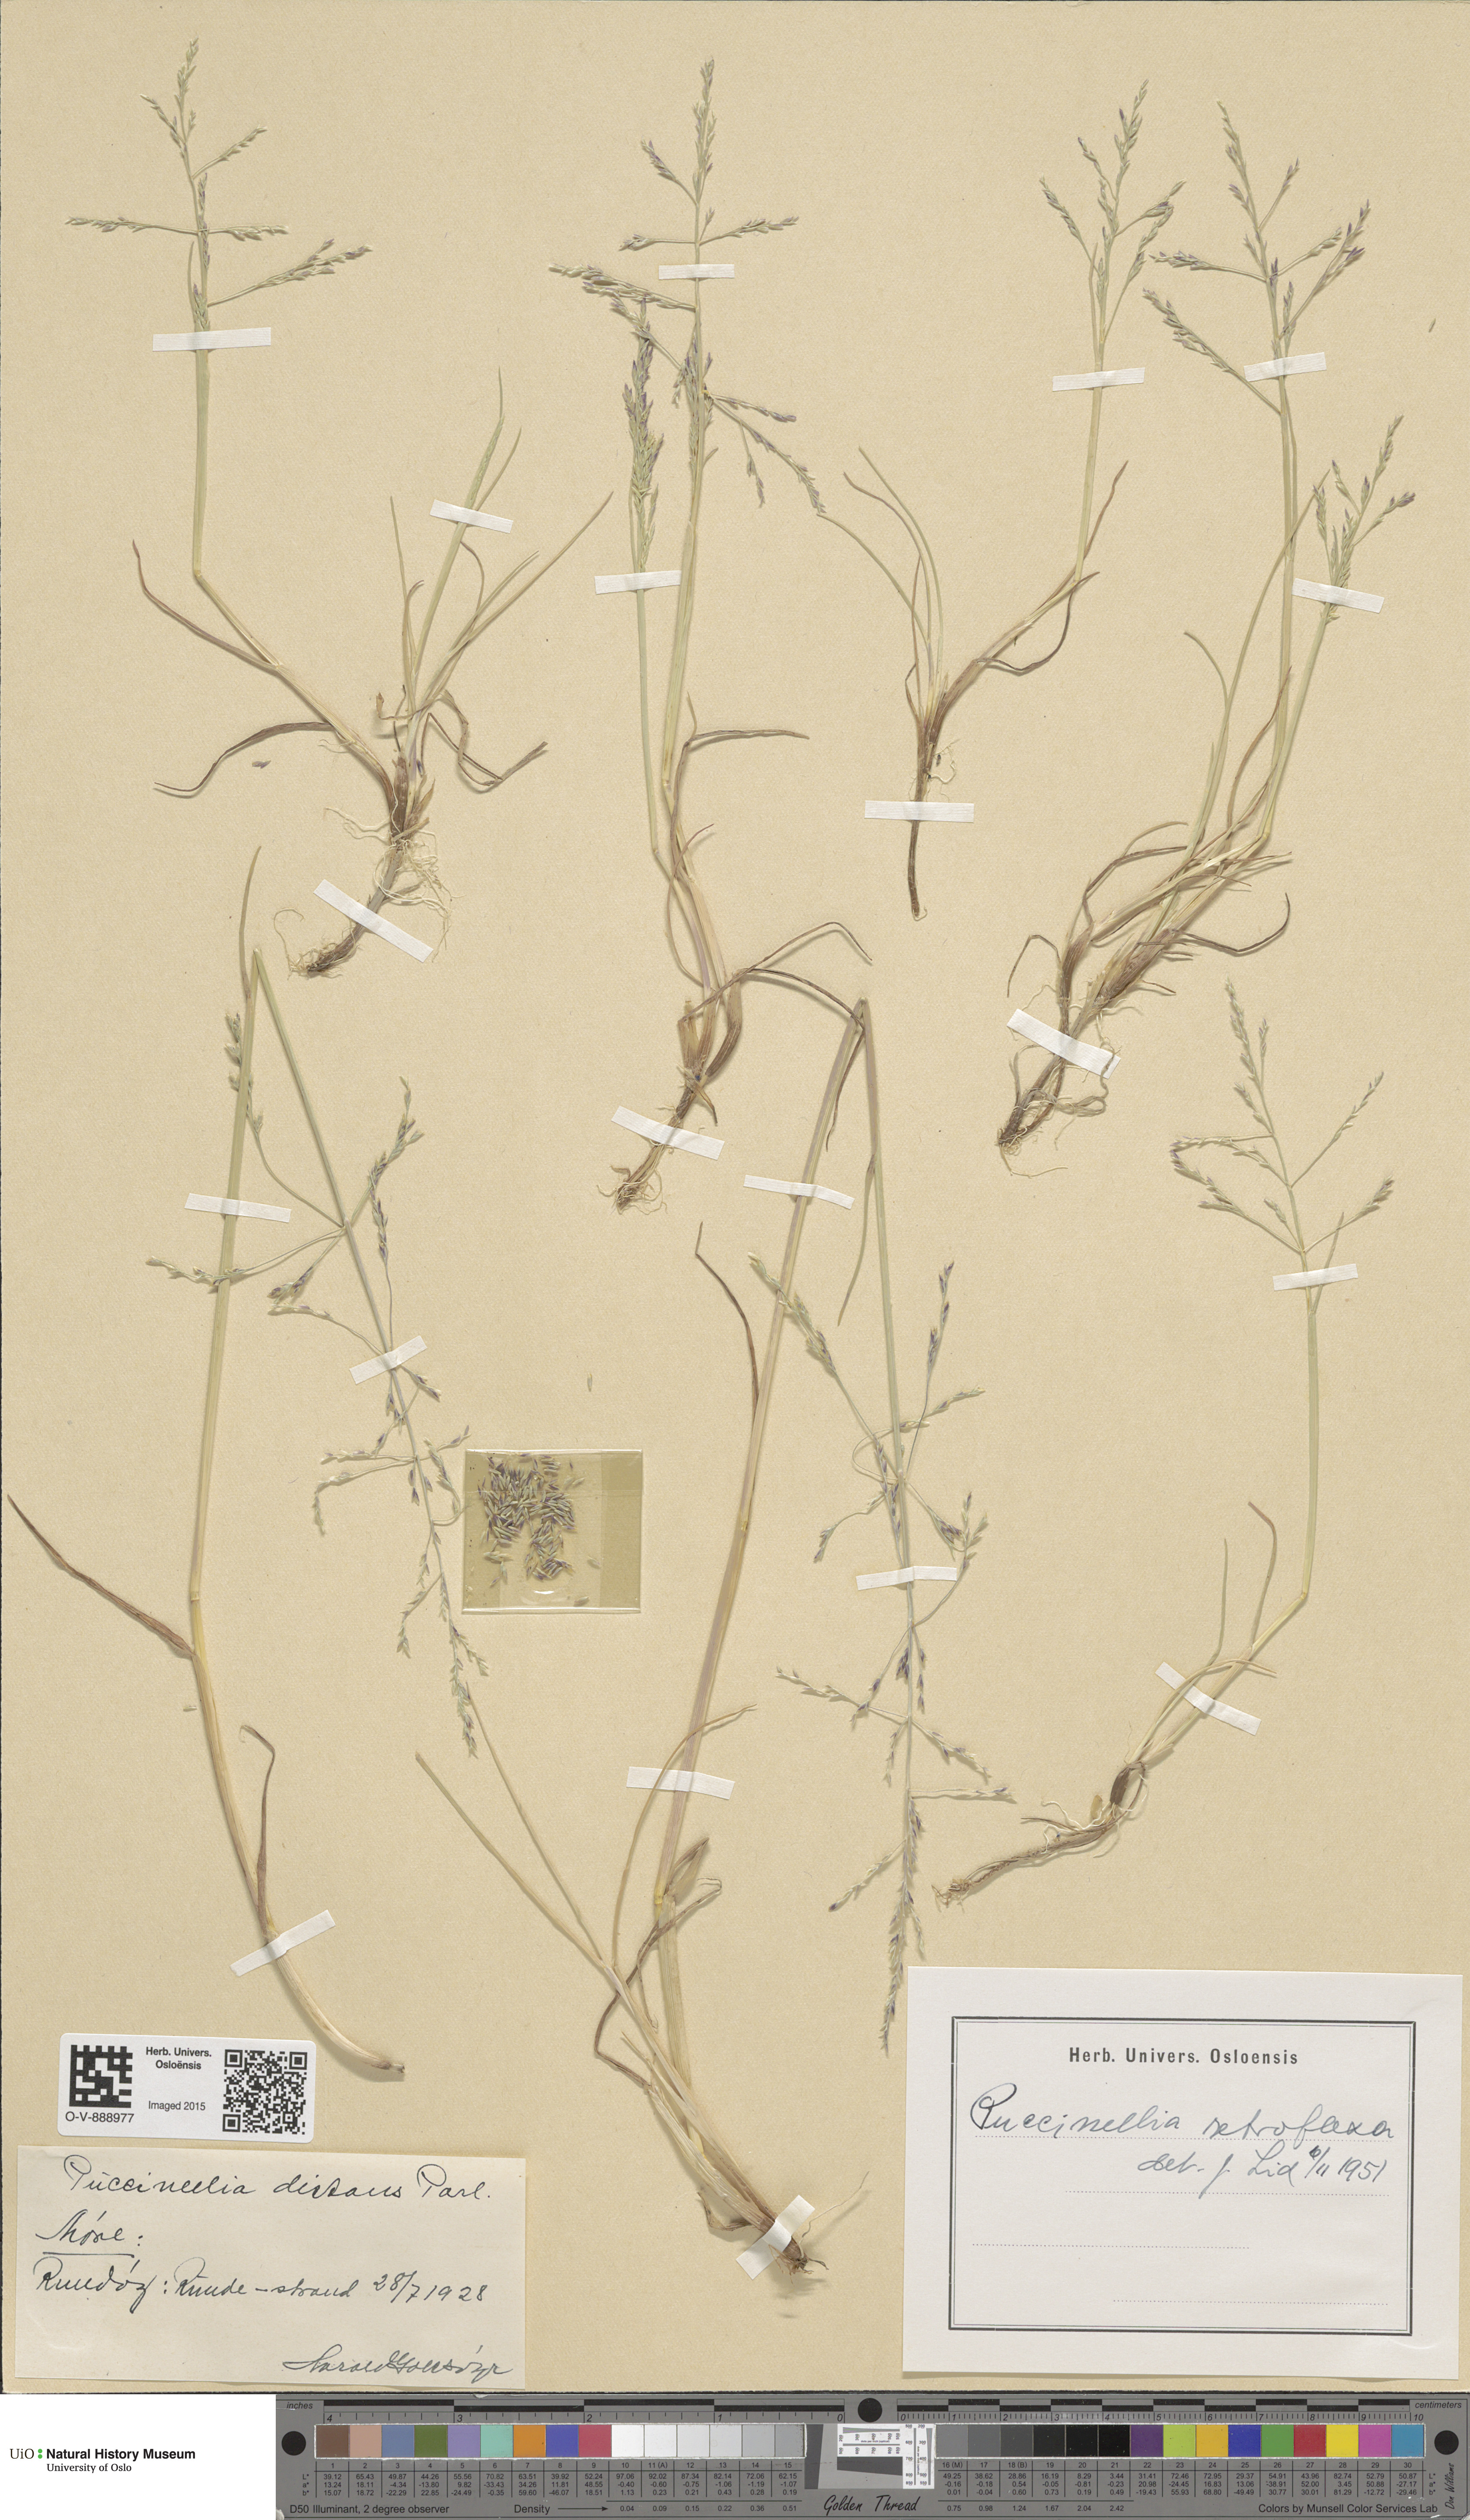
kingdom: Plantae
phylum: Tracheophyta
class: Liliopsida
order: Poales
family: Poaceae
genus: Puccinellia
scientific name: Puccinellia distans
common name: Weeping alkaligrass
